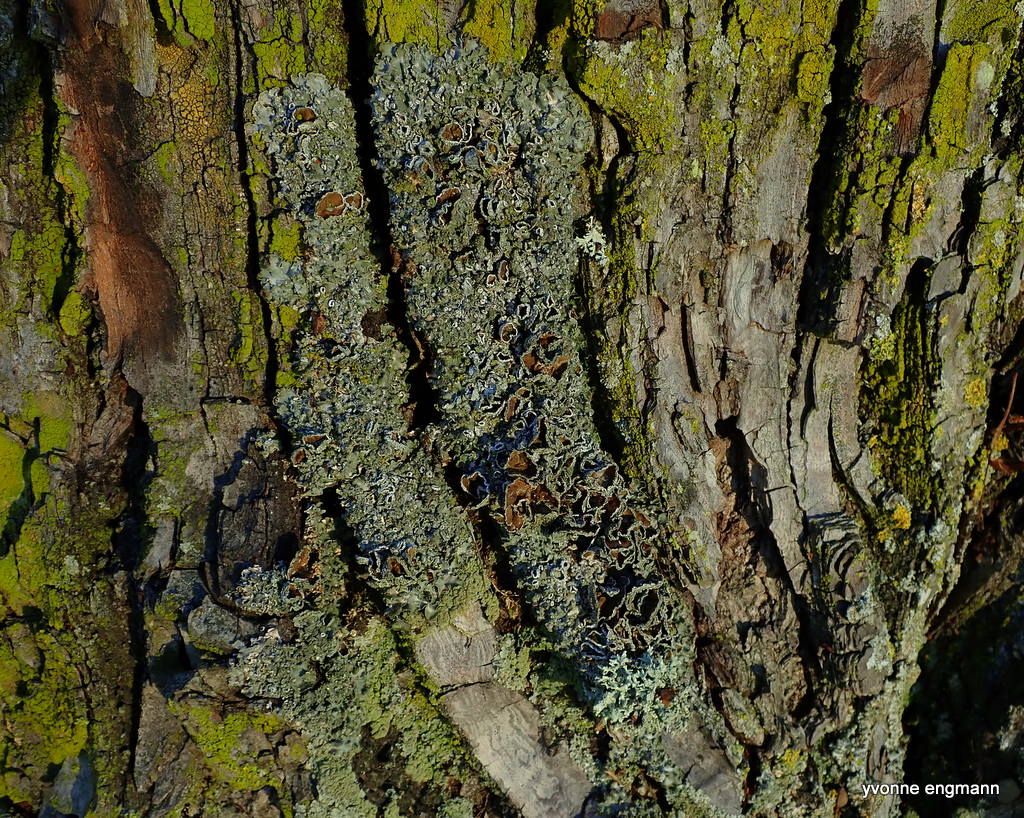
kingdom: Fungi
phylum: Ascomycota
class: Lecanoromycetes
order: Lecanorales
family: Parmeliaceae
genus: Pleurosticta
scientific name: Pleurosticta acetabulum
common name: stor skållav
